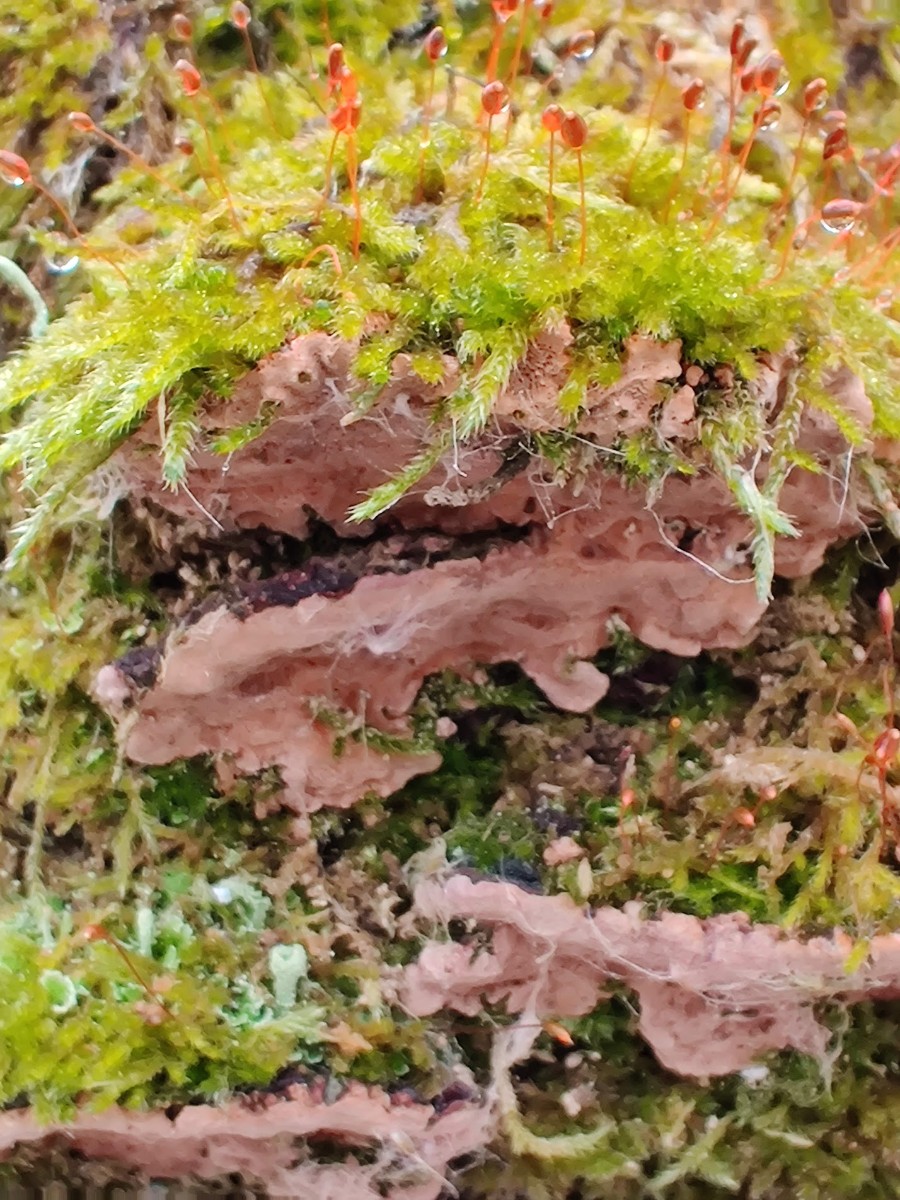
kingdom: Fungi
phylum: Basidiomycota
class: Agaricomycetes
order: Hymenochaetales
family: Hymenochaetaceae
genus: Phellinopsis
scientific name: Phellinopsis conchata
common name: pile-ildporesvamp
